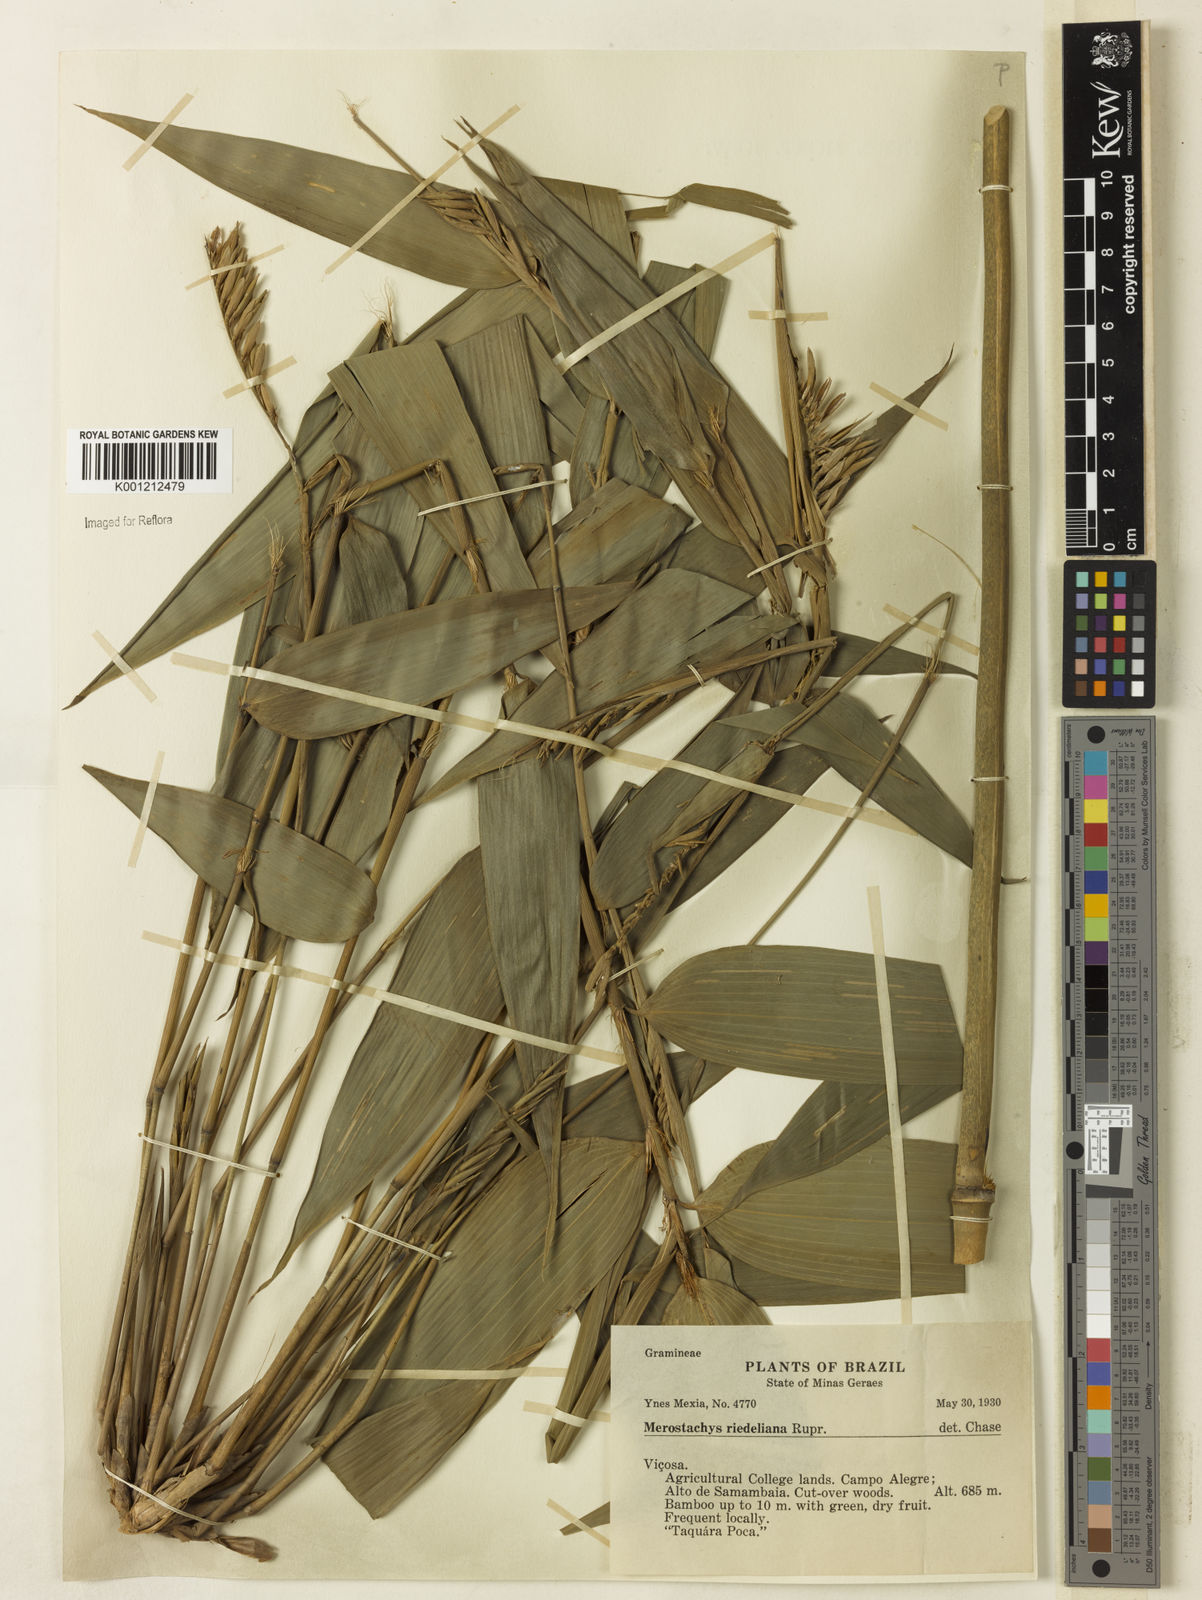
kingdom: Plantae
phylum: Tracheophyta
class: Liliopsida
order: Poales
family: Poaceae
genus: Merostachys
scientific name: Merostachys
